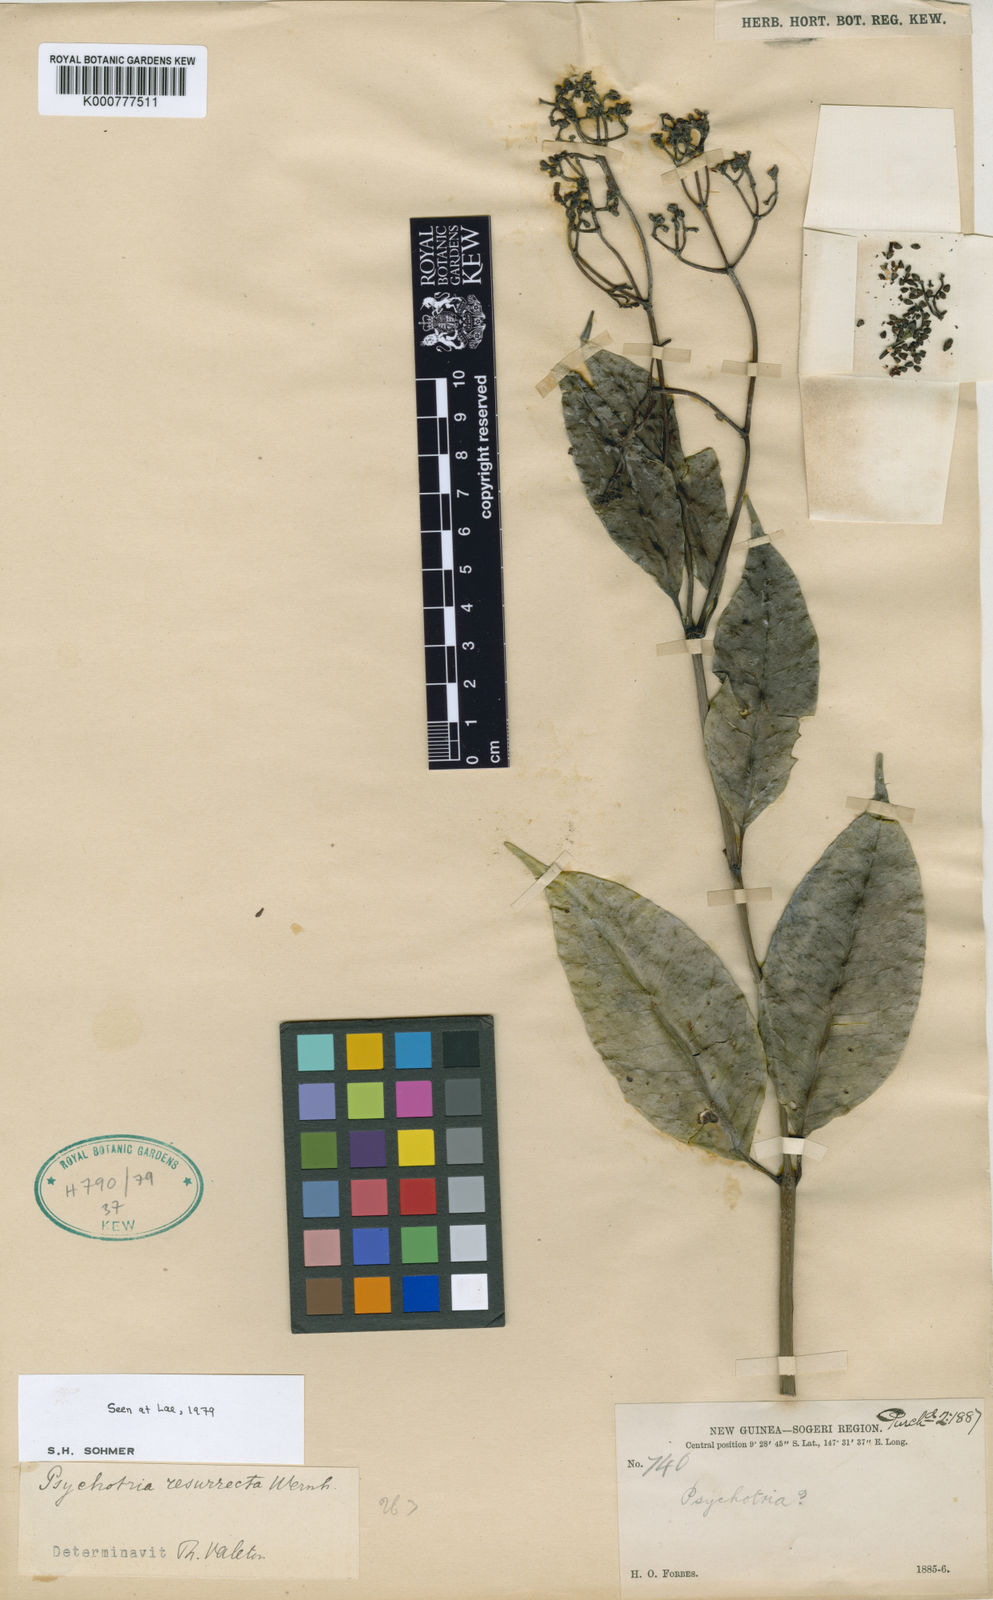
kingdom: Plantae
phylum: Tracheophyta
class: Magnoliopsida
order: Gentianales
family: Rubiaceae
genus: Psychotria
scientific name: Psychotria resurrecta
